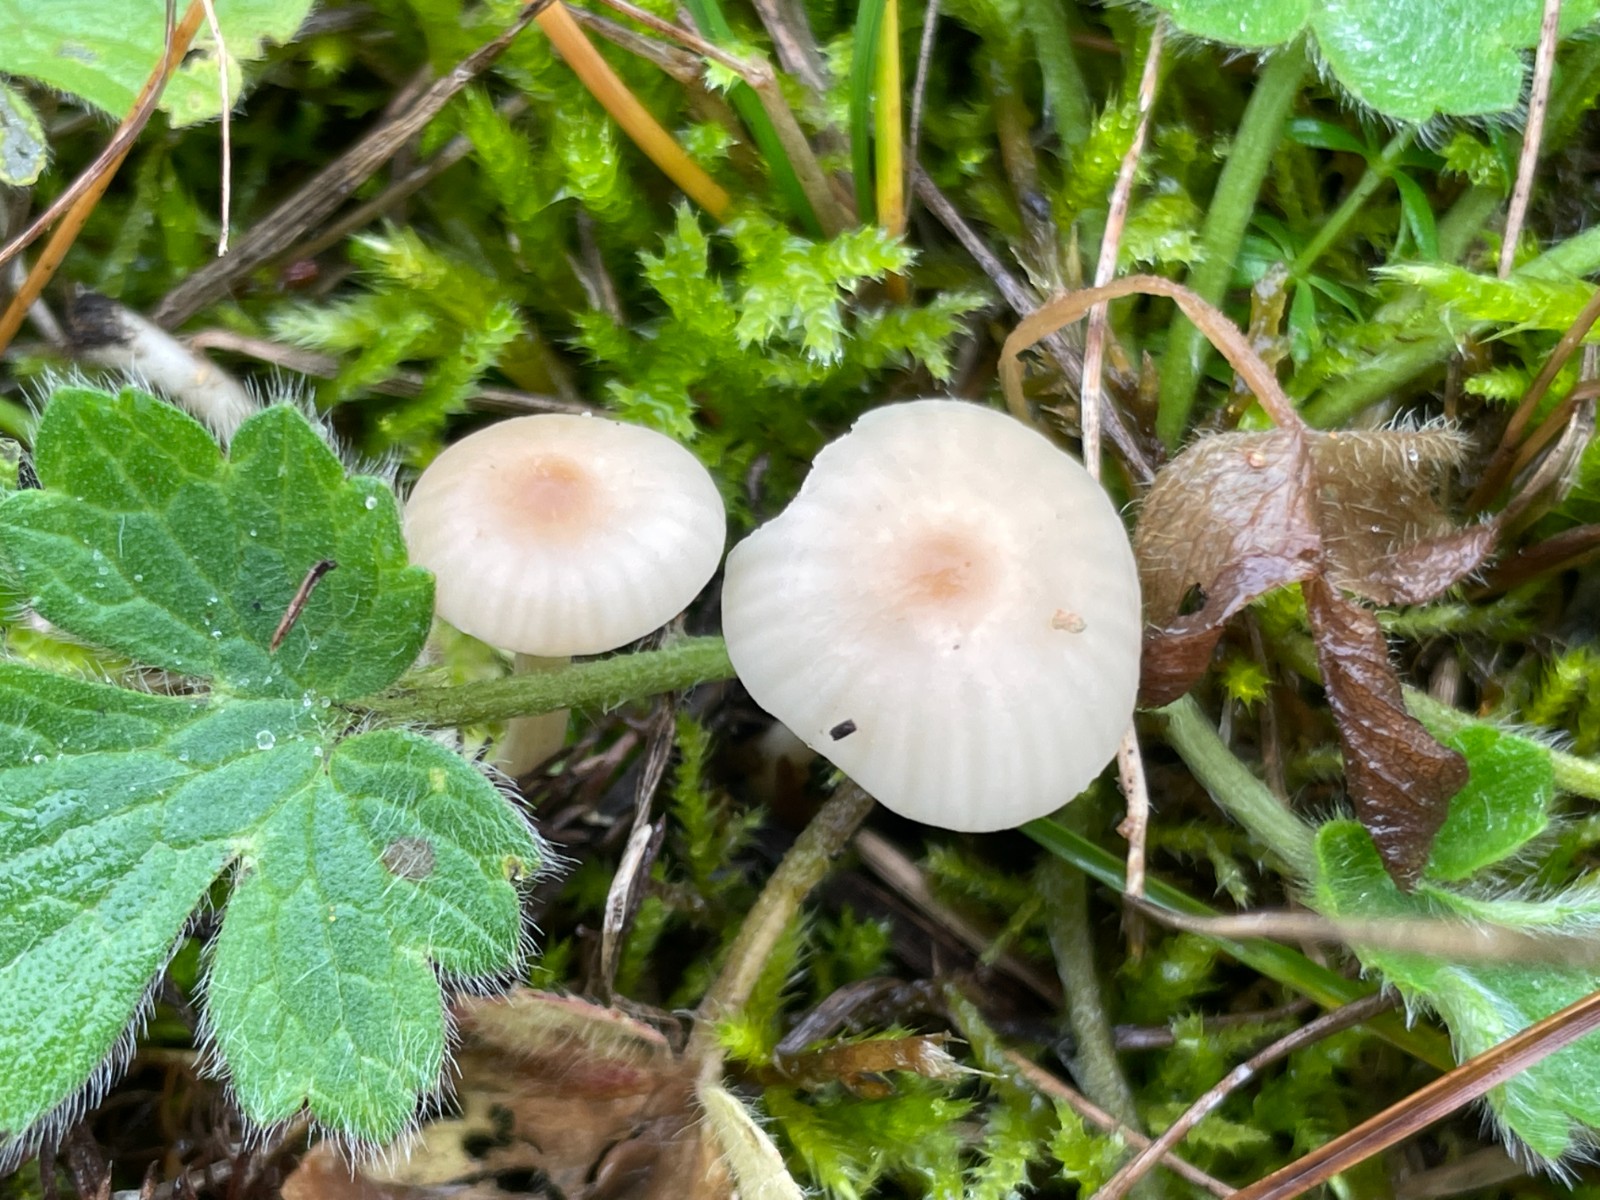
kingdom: Fungi
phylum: Basidiomycota
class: Agaricomycetes
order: Agaricales
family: Hygrophoraceae
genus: Cuphophyllus
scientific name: Cuphophyllus virgineus
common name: brunøjet vokshat
